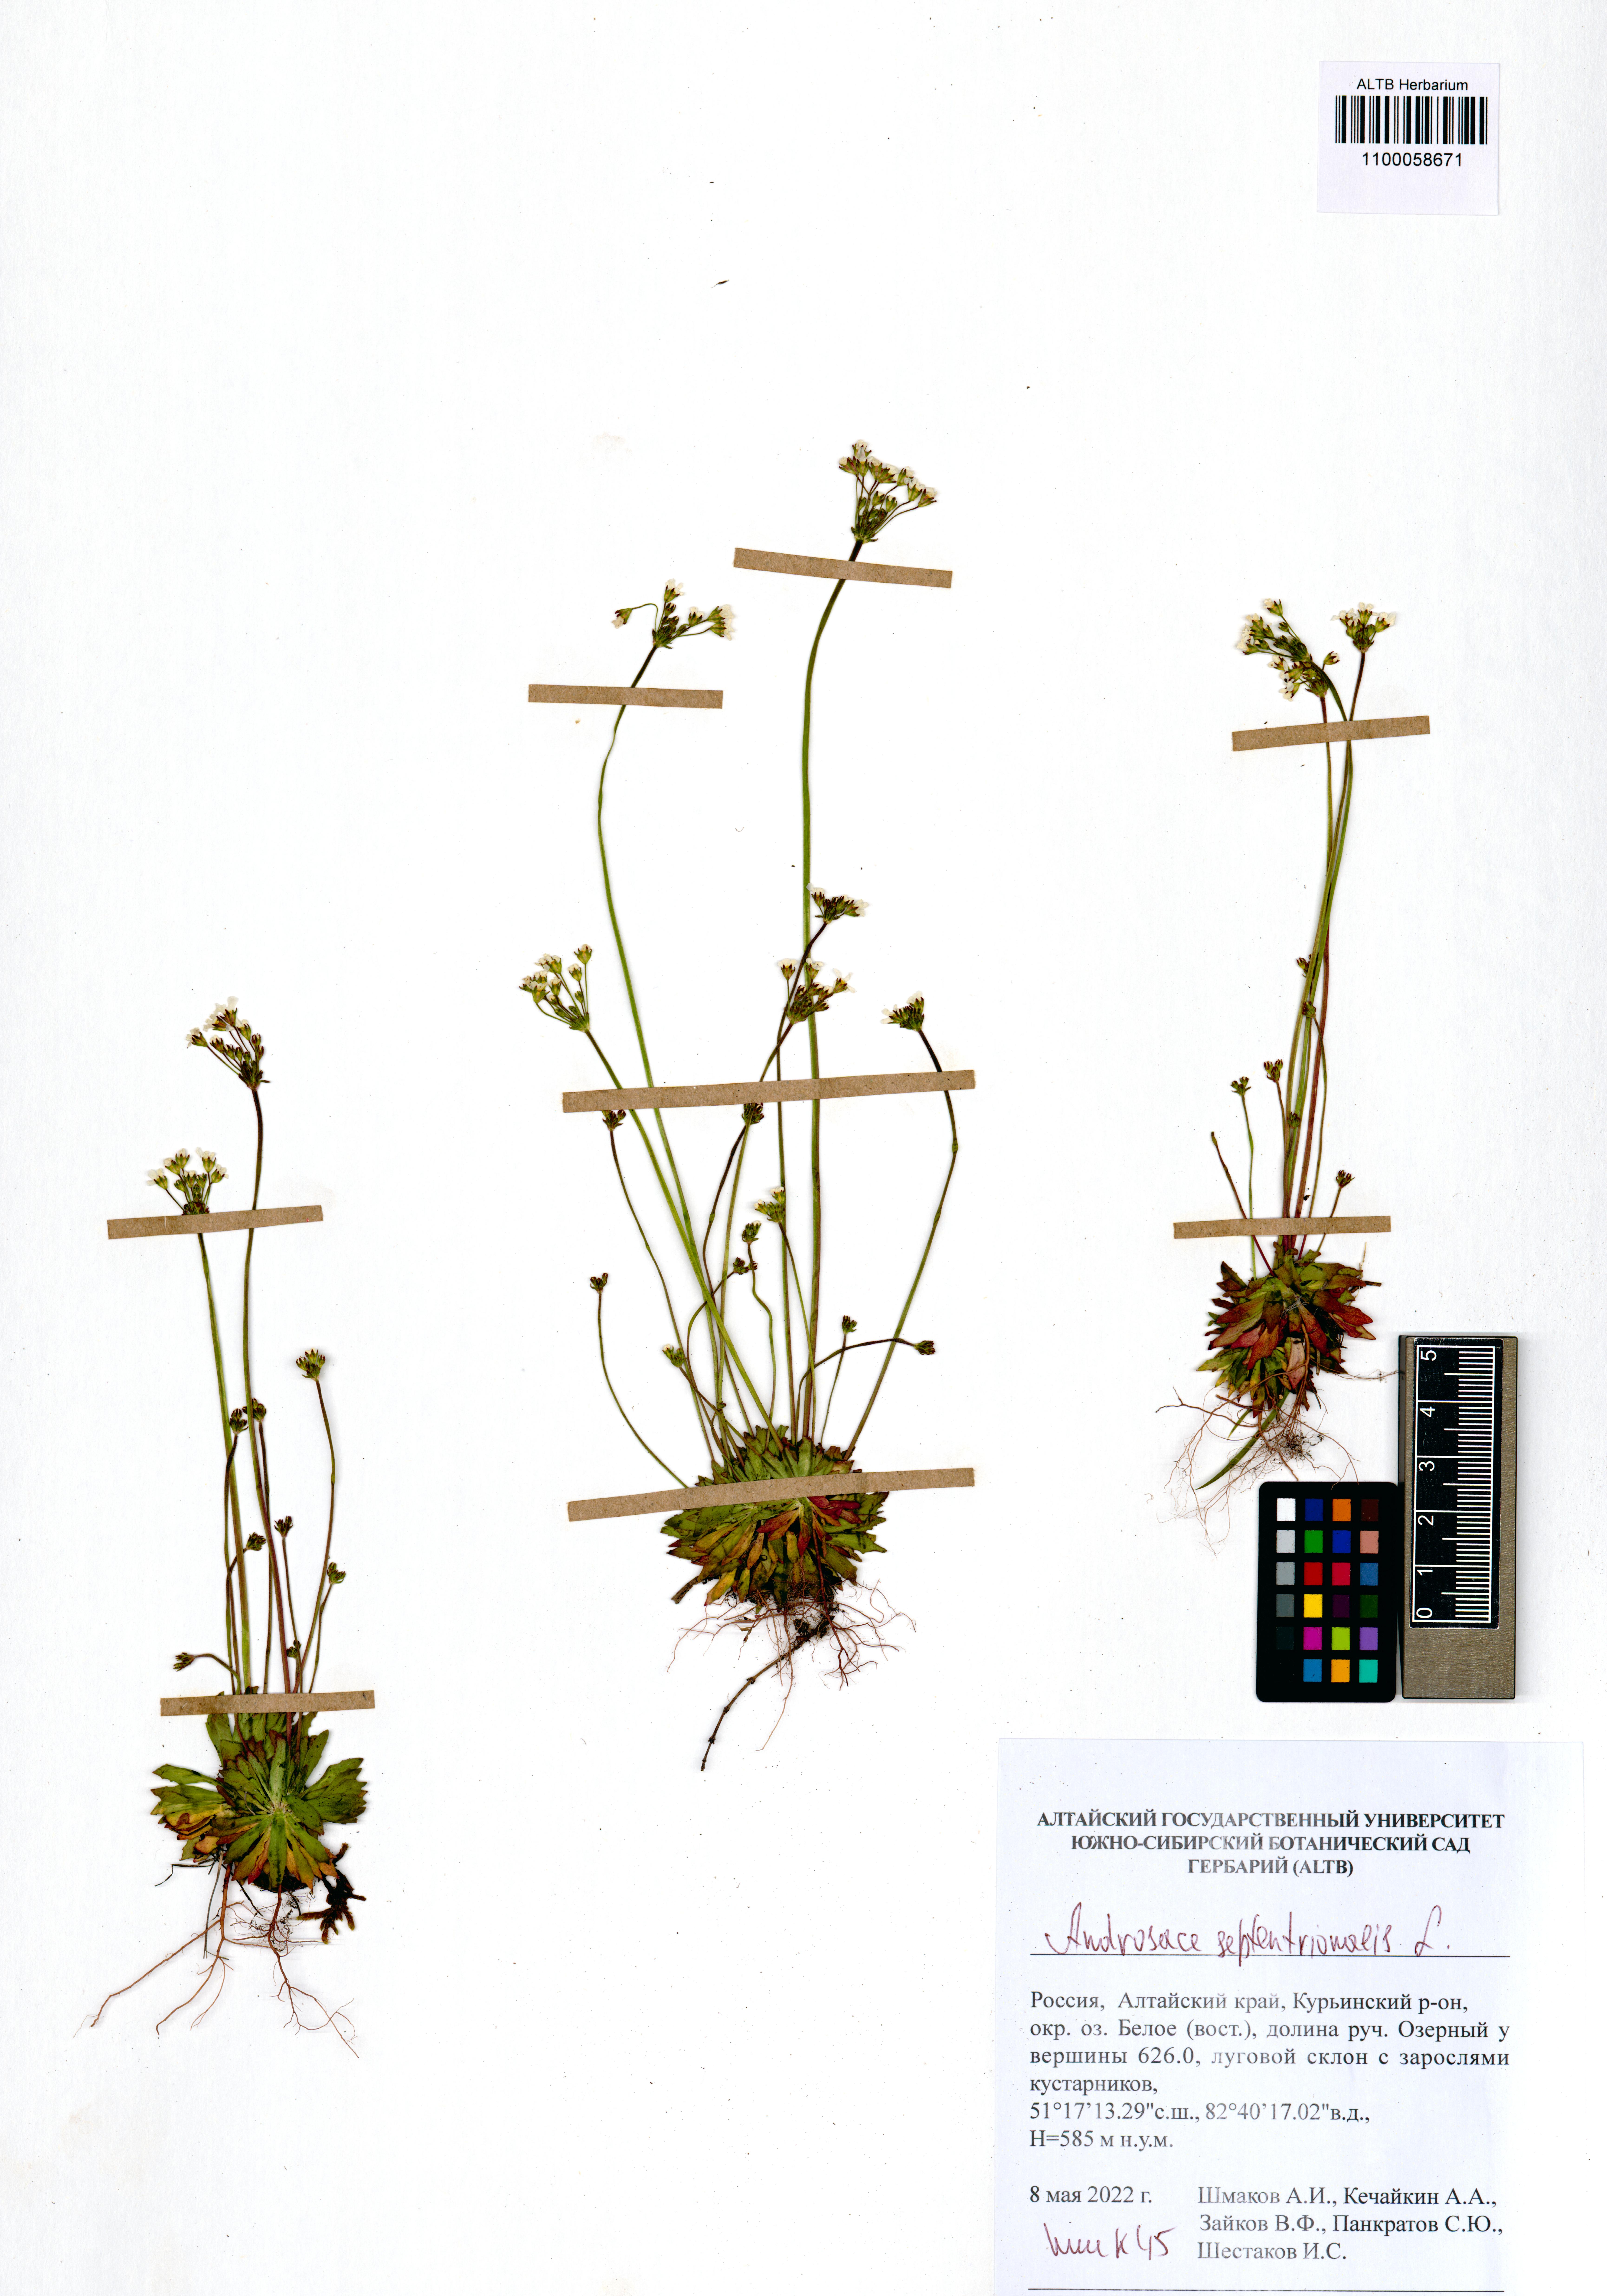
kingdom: Plantae
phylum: Tracheophyta
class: Magnoliopsida
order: Ericales
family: Primulaceae
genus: Androsace
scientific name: Androsace septentrionalis
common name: Hairy northern fairy-candelabra
